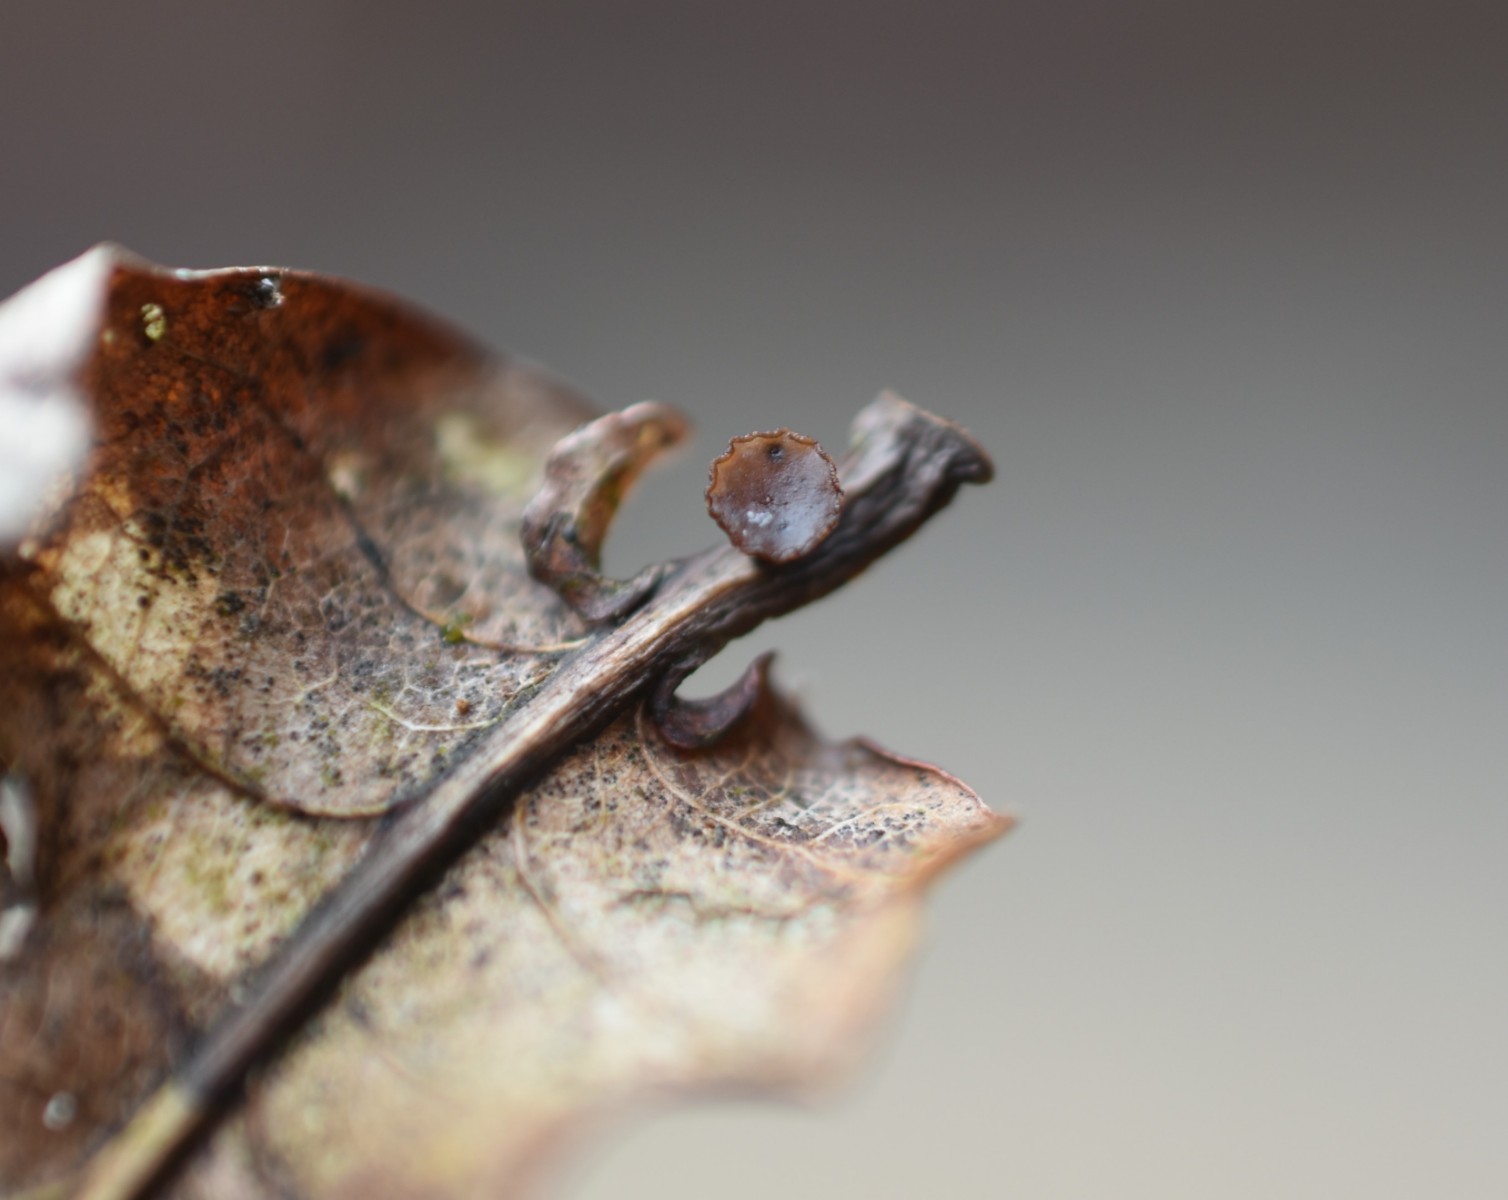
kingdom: Fungi
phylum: Ascomycota
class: Leotiomycetes
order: Helotiales
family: Rutstroemiaceae
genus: Rutstroemia
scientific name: Rutstroemia sydowiana
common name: egeblads-brunskive
